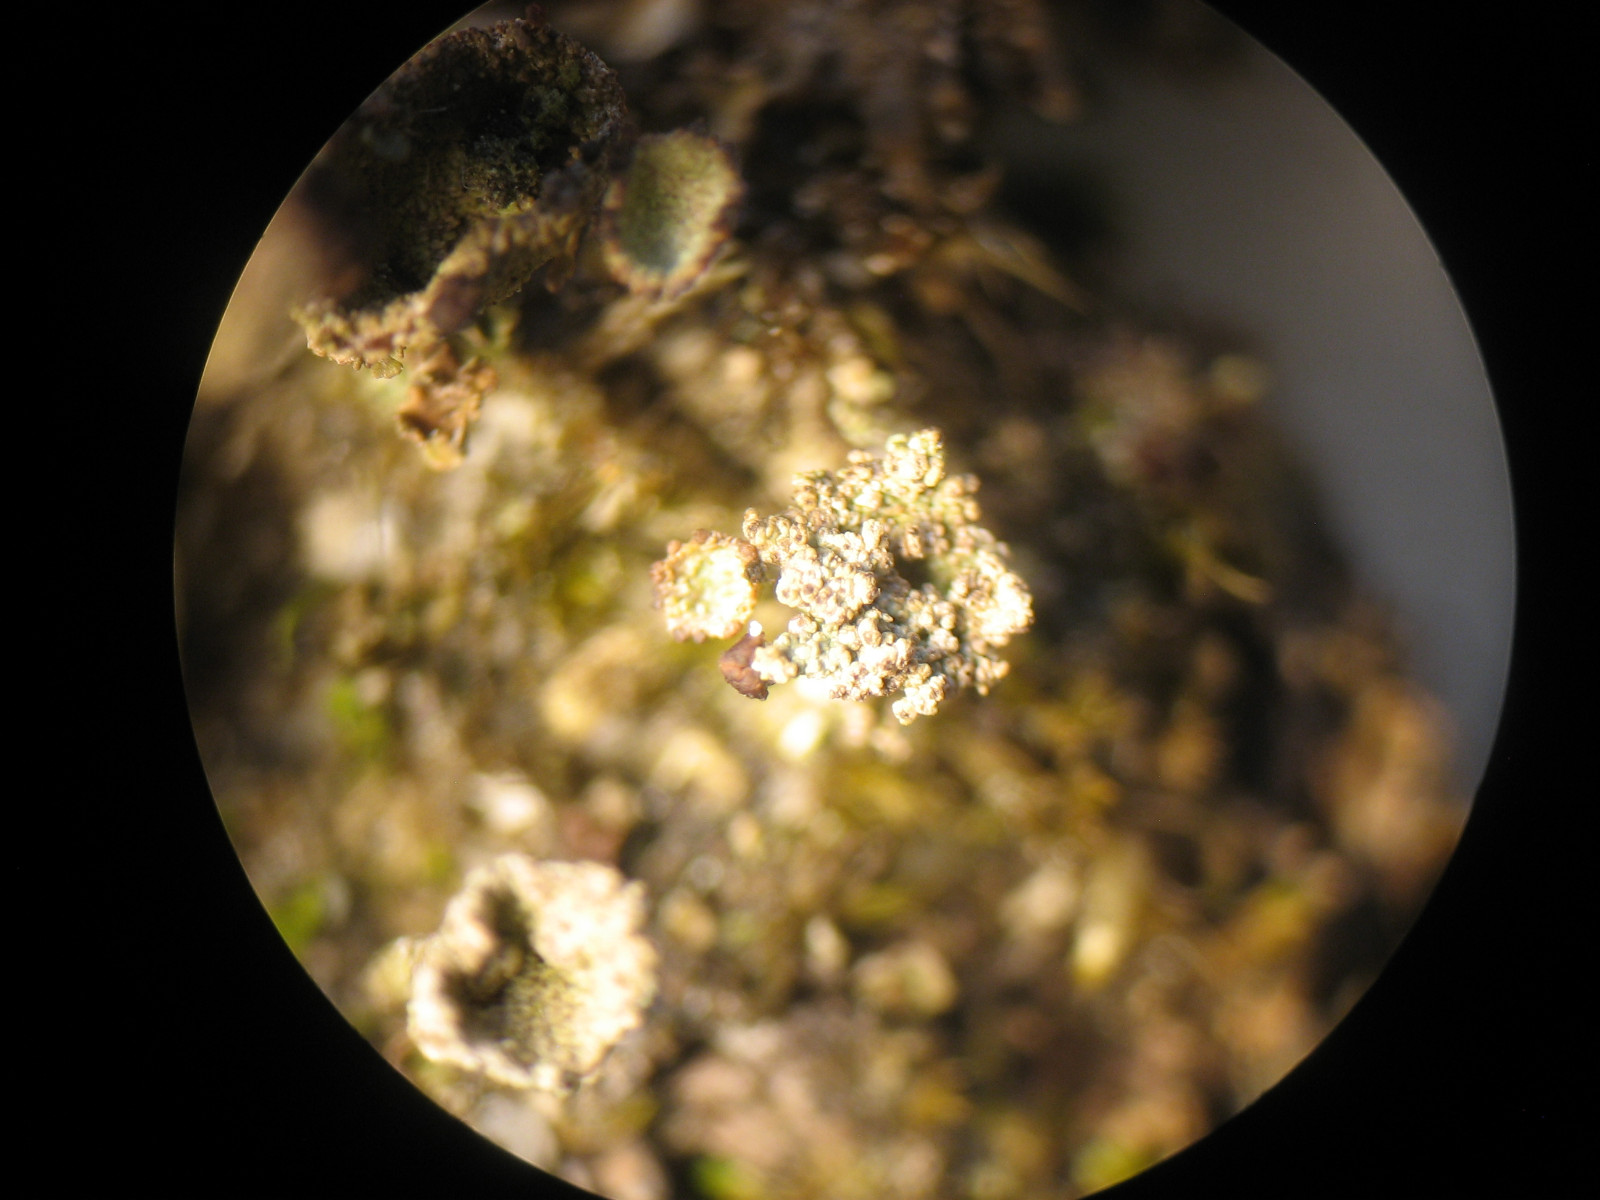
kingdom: Fungi
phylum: Ascomycota
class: Leotiomycetes
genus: Epicladonia
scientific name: Epicladonia sandstedei
